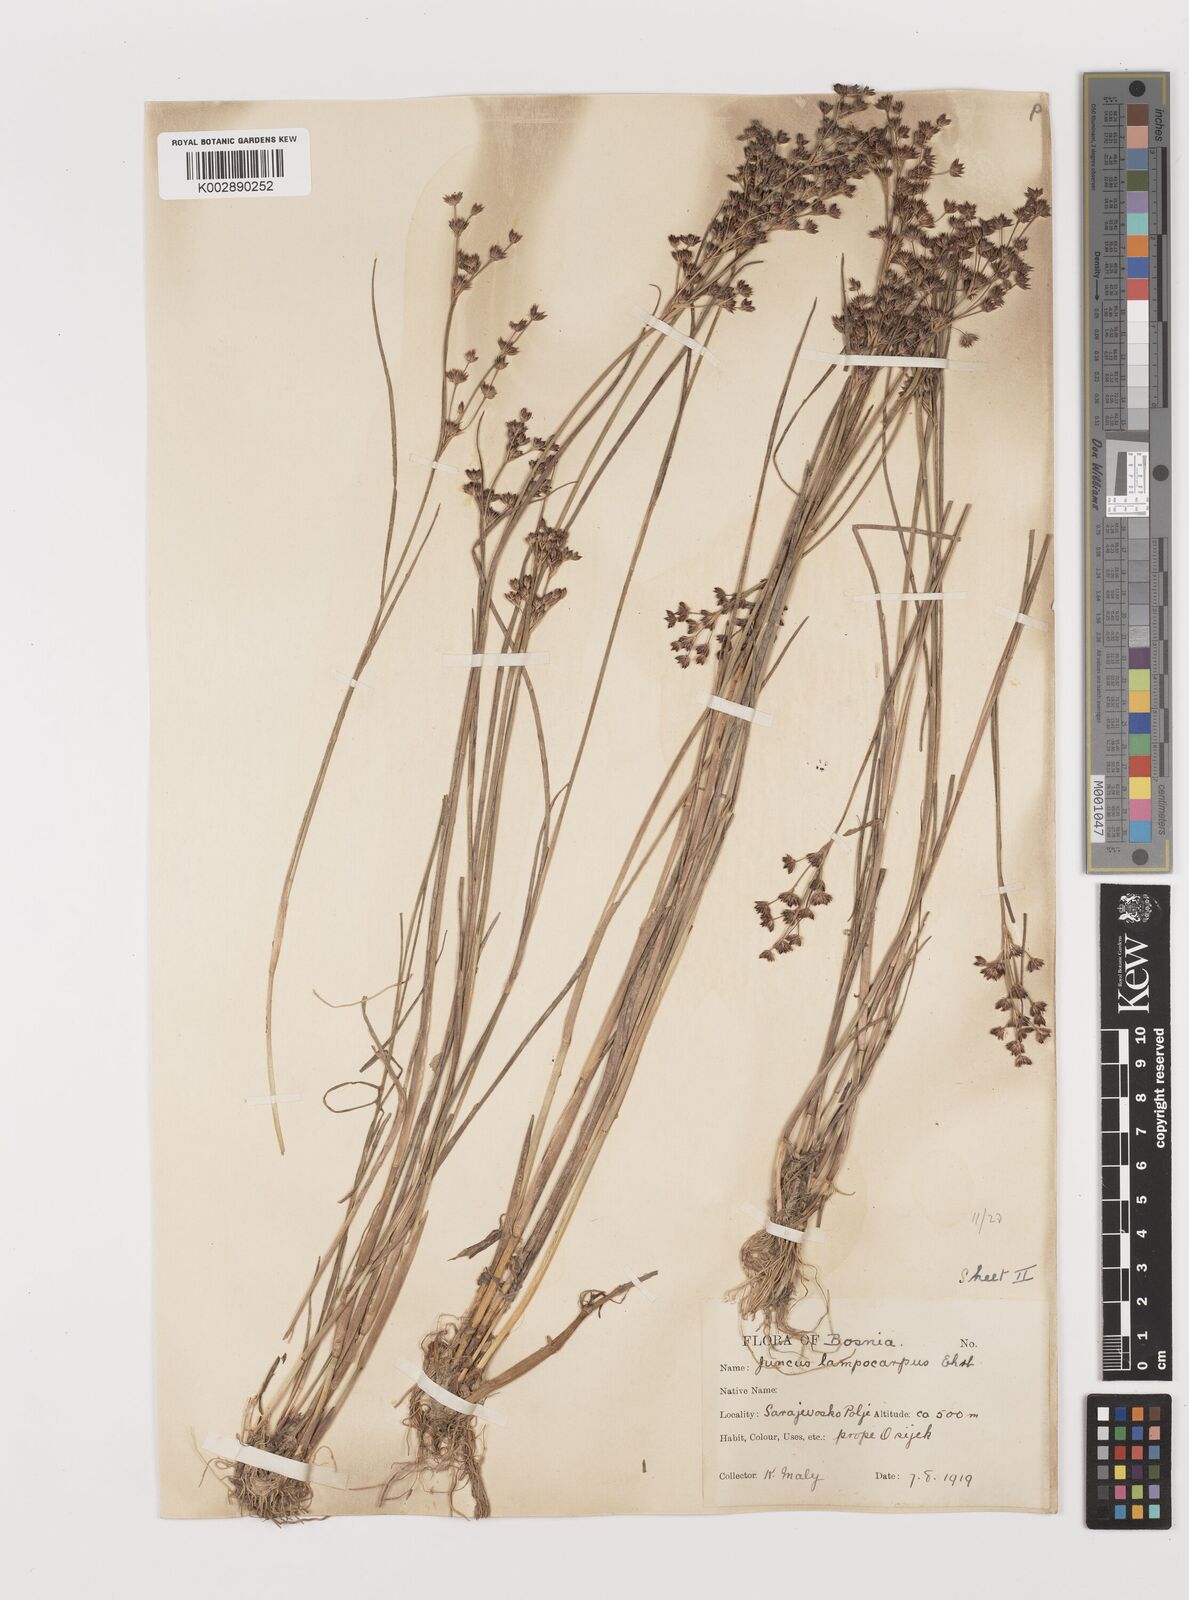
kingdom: Plantae
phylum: Tracheophyta
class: Liliopsida
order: Poales
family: Juncaceae
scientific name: Juncaceae
